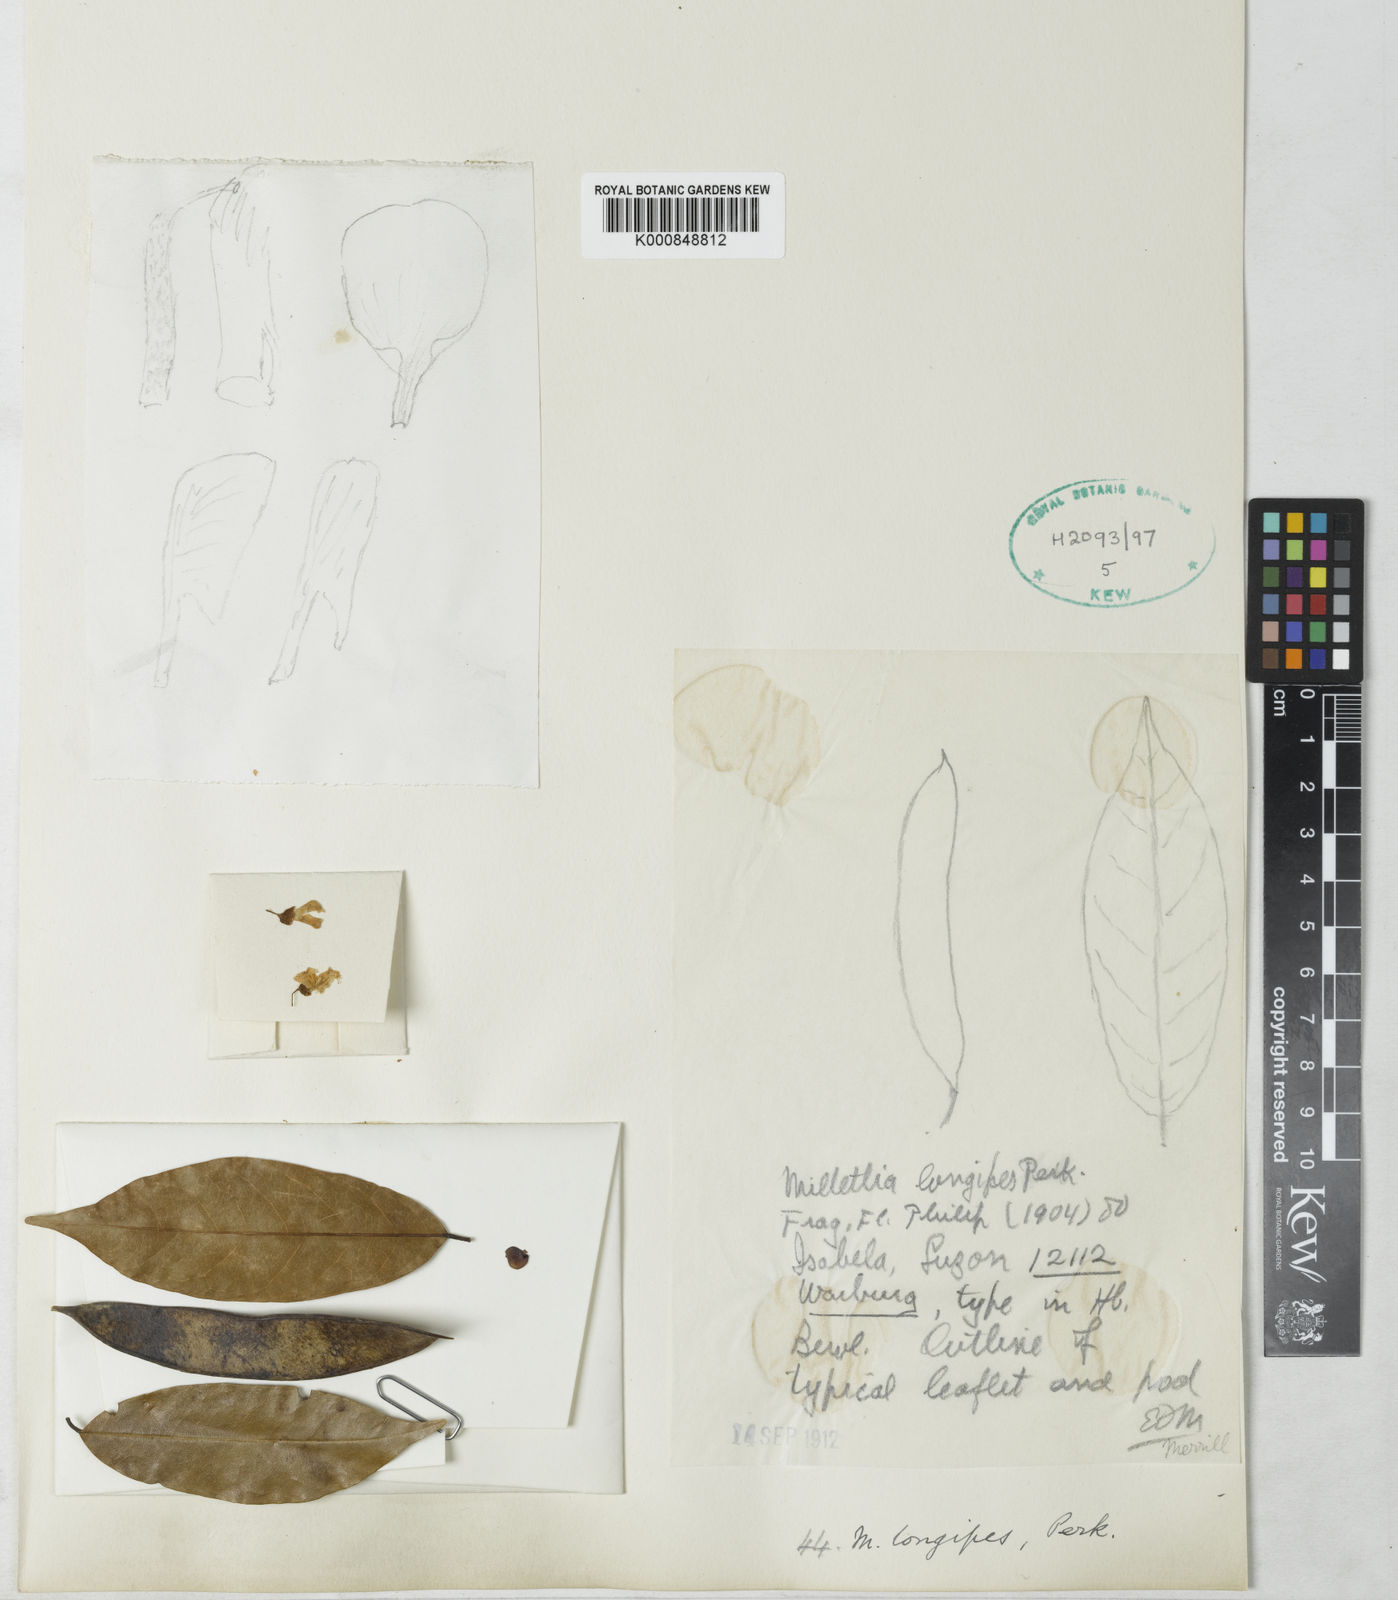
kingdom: Plantae
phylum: Tracheophyta
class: Magnoliopsida
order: Fabales
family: Fabaceae
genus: Millettia
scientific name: Millettia longipes
